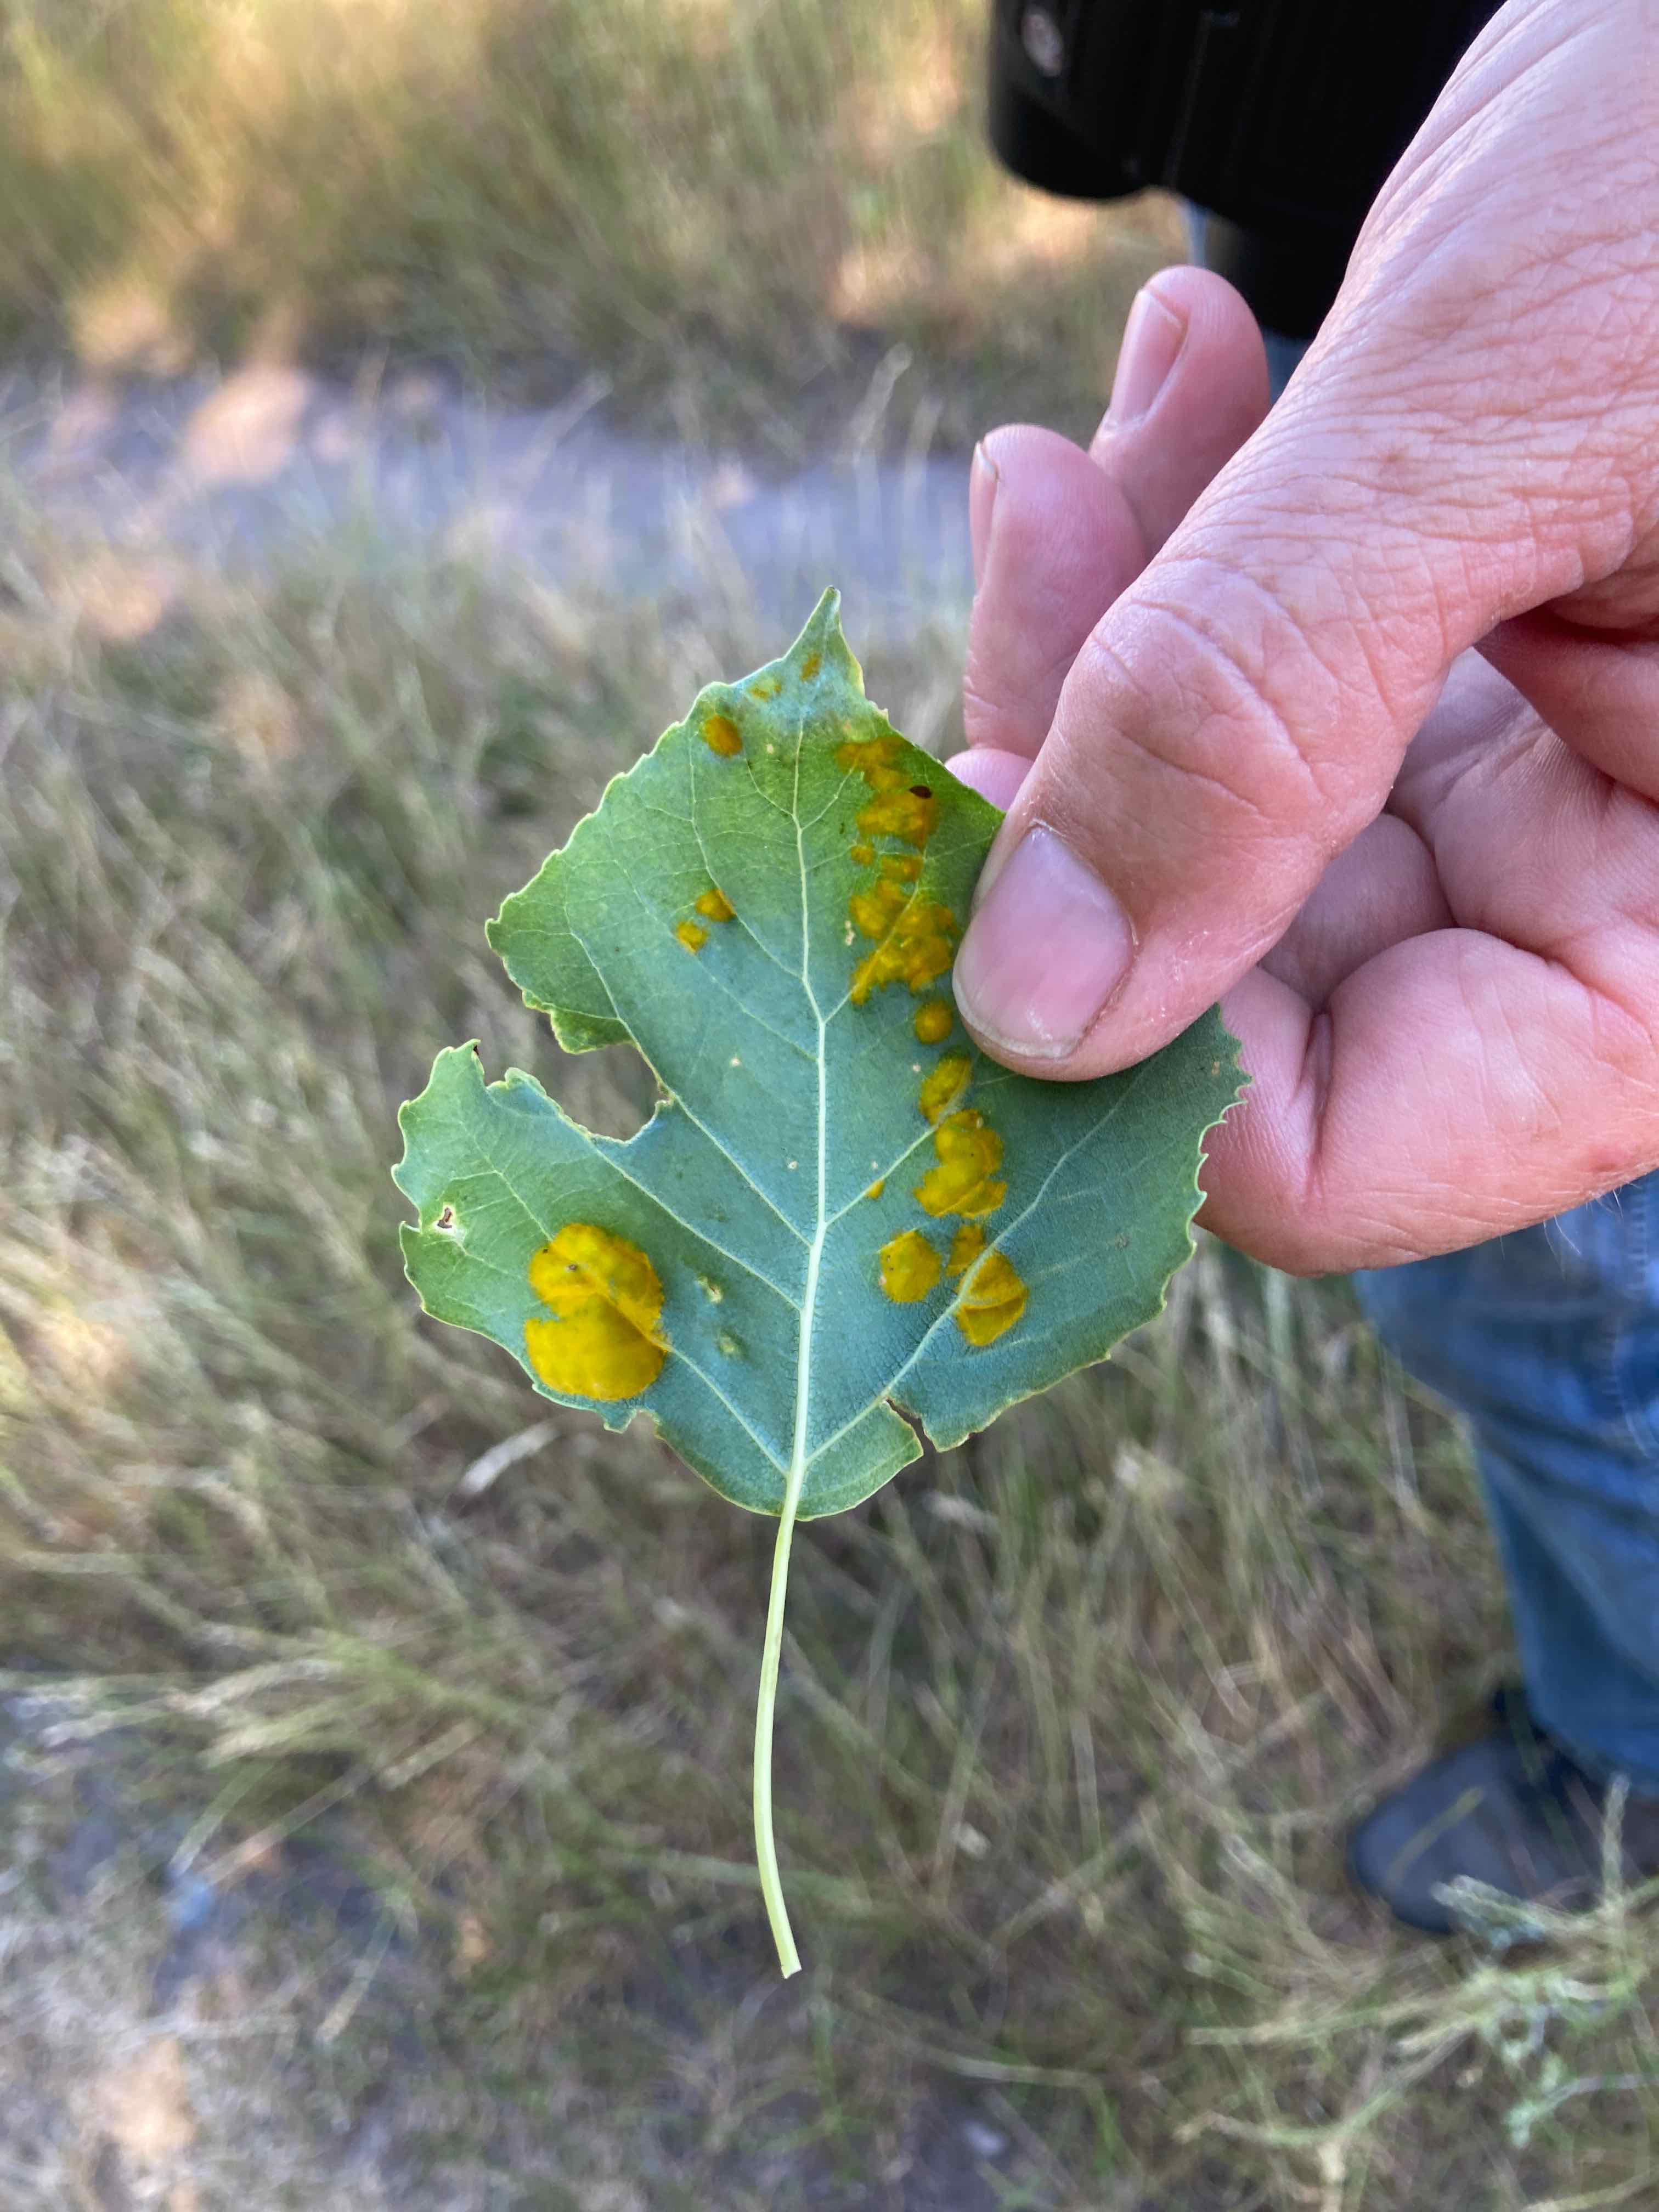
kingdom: Fungi
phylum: Ascomycota
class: Taphrinomycetes
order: Taphrinales
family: Taphrinaceae
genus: Taphrina
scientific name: Taphrina populina
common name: Poplar leaf curl
